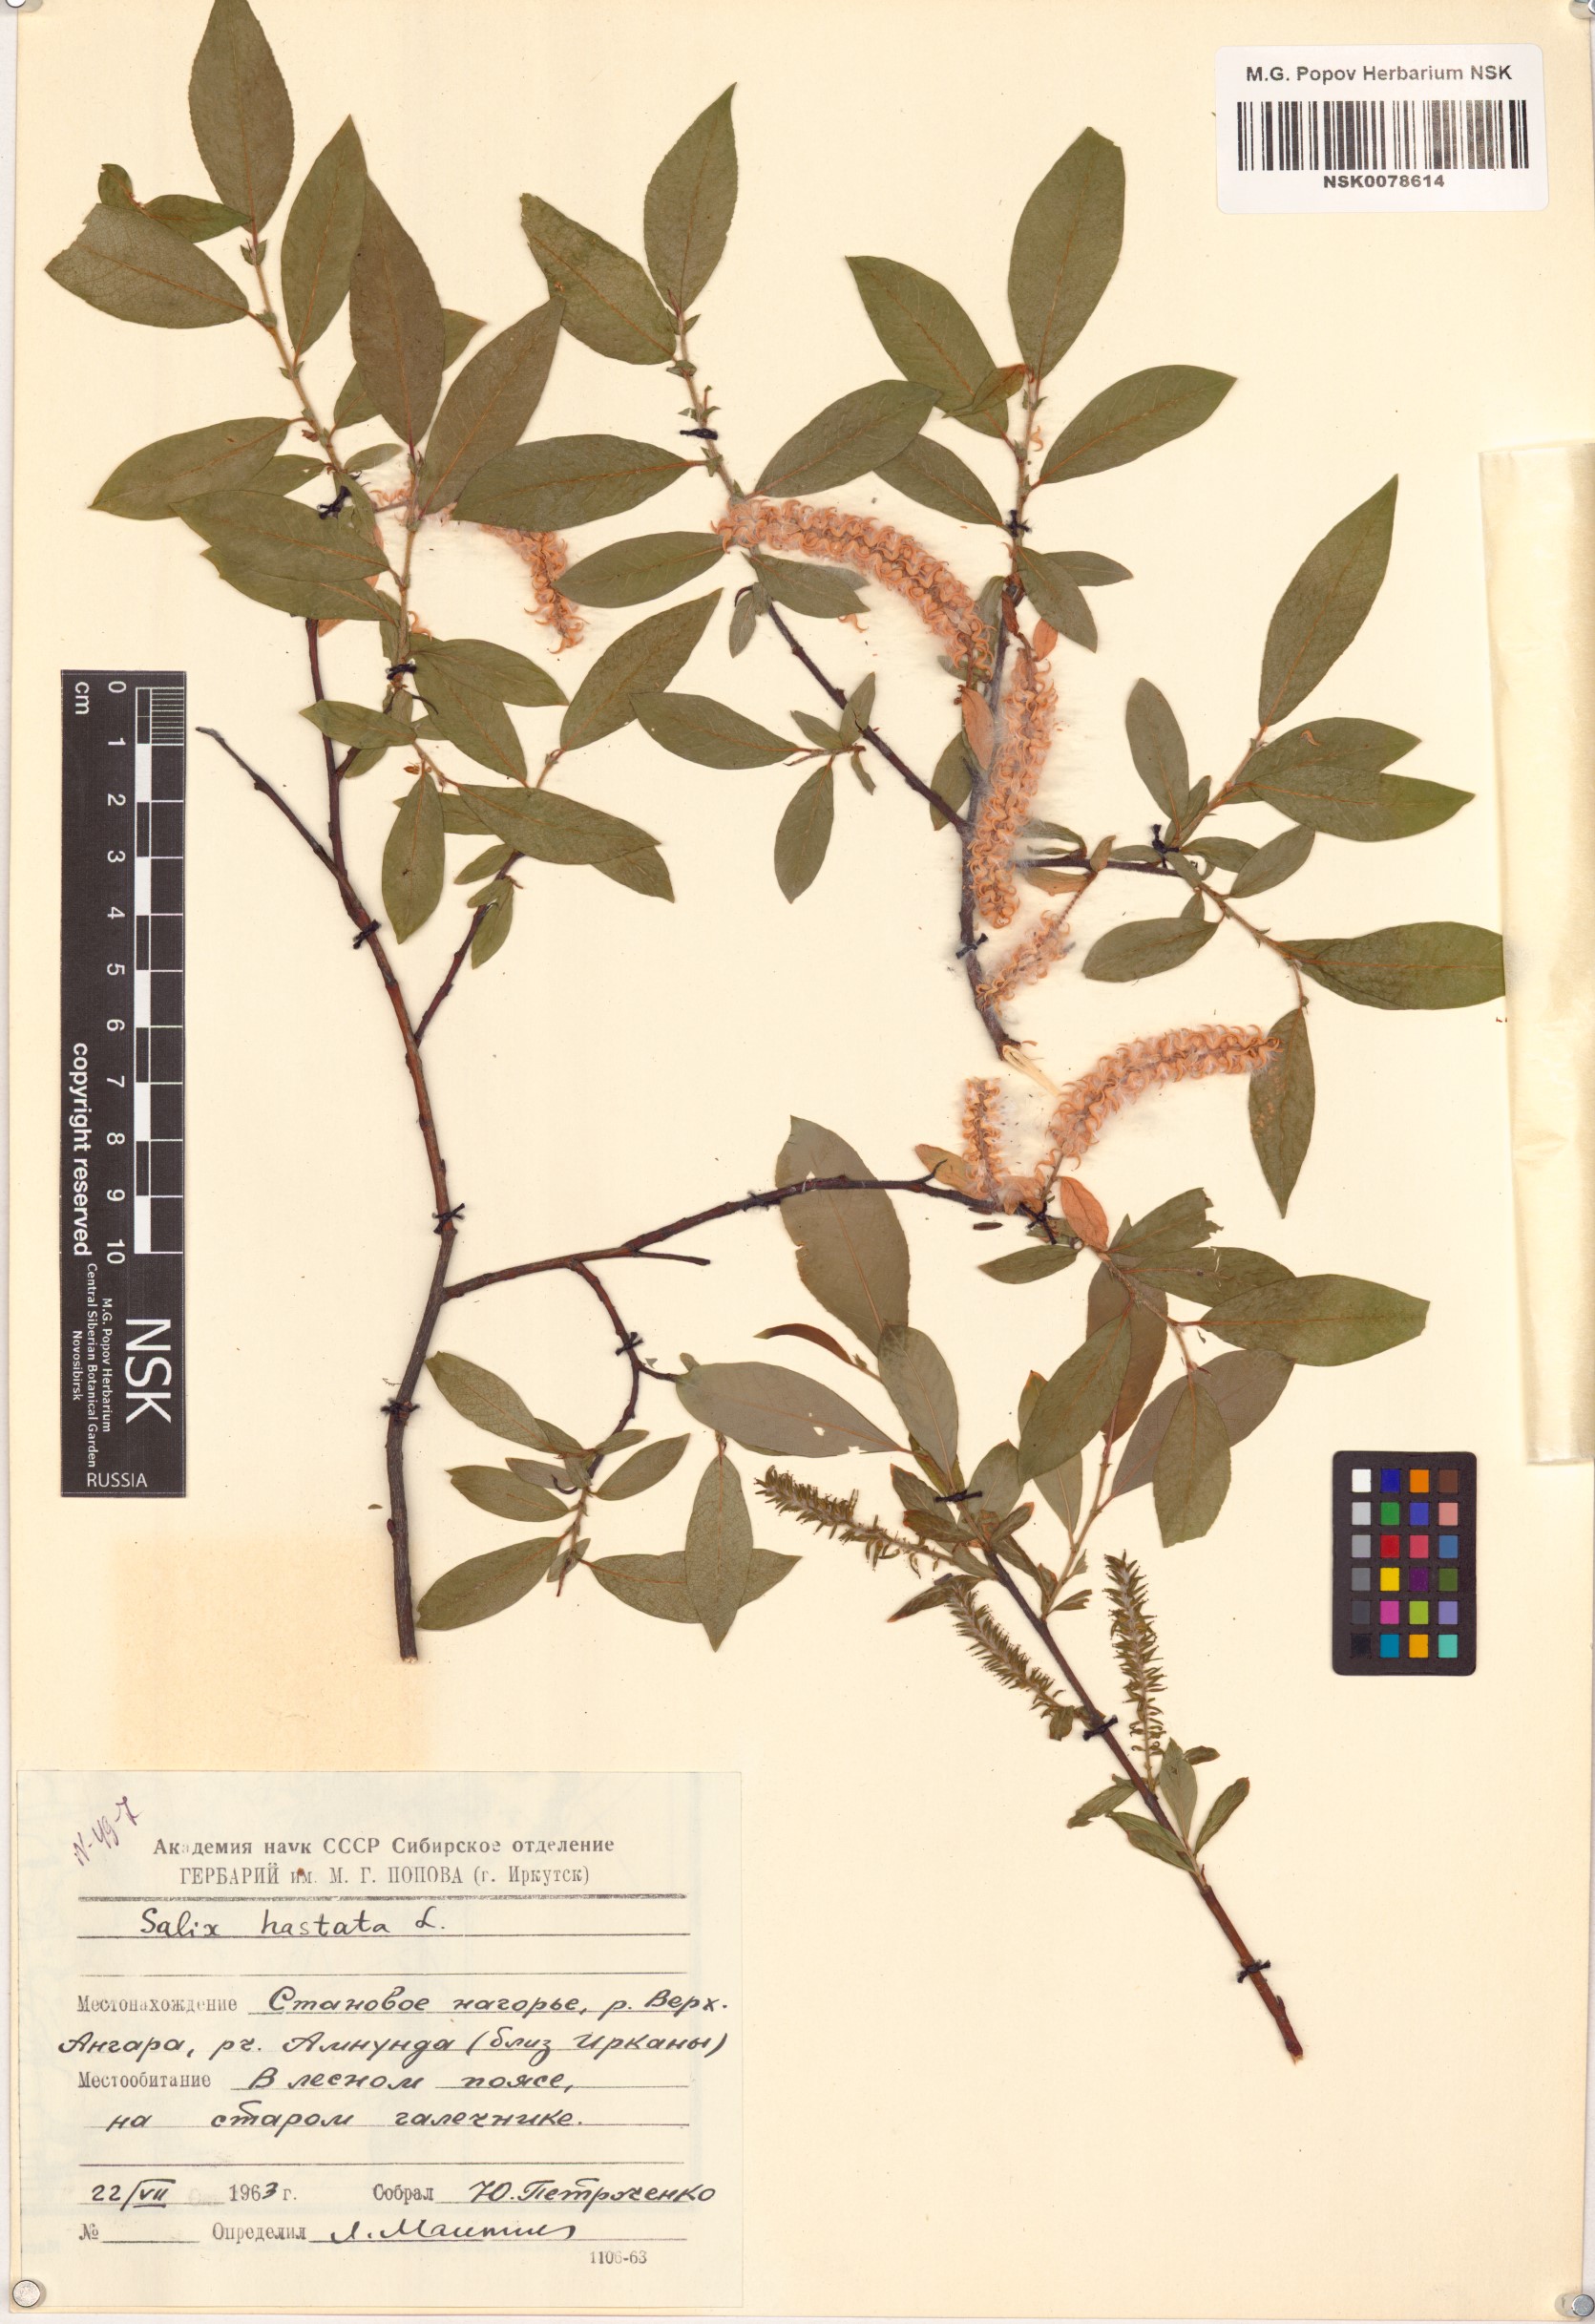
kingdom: Plantae
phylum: Tracheophyta
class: Magnoliopsida
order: Malpighiales
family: Salicaceae
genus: Salix
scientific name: Salix hastata
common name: Halberd willow
